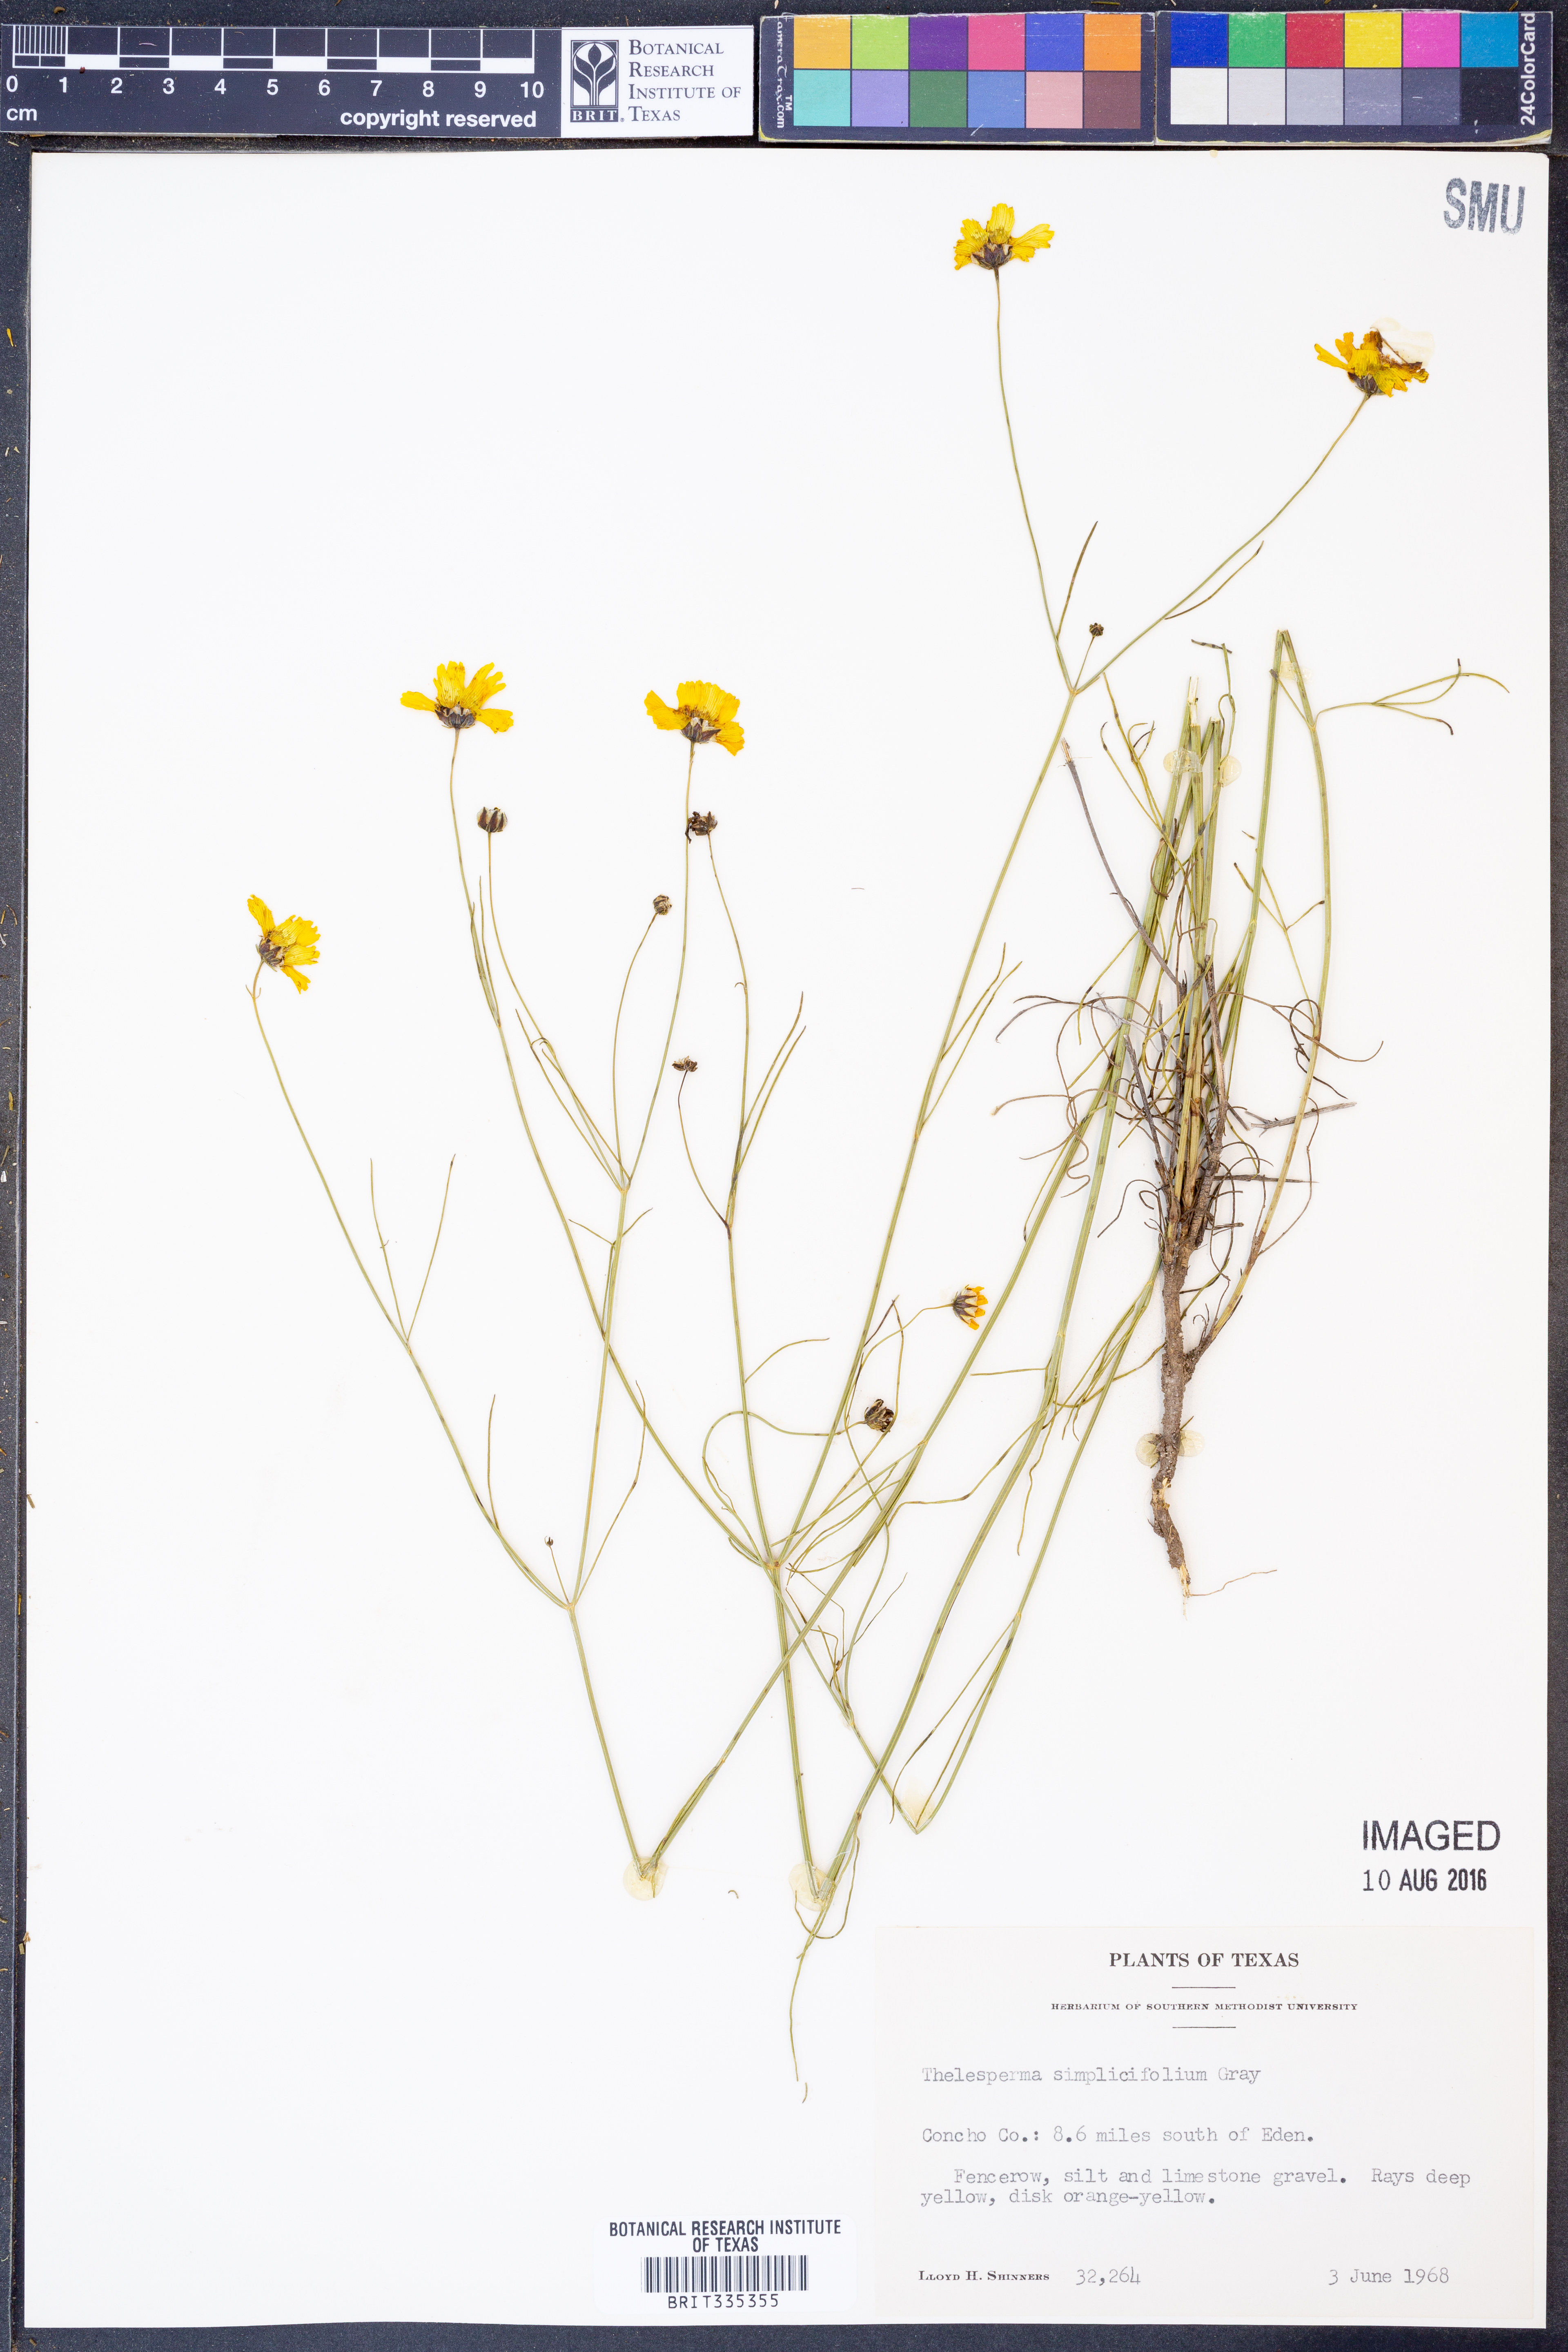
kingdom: Plantae
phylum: Tracheophyta
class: Magnoliopsida
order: Asterales
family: Asteraceae
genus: Thelesperma
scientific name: Thelesperma simplicifolium
